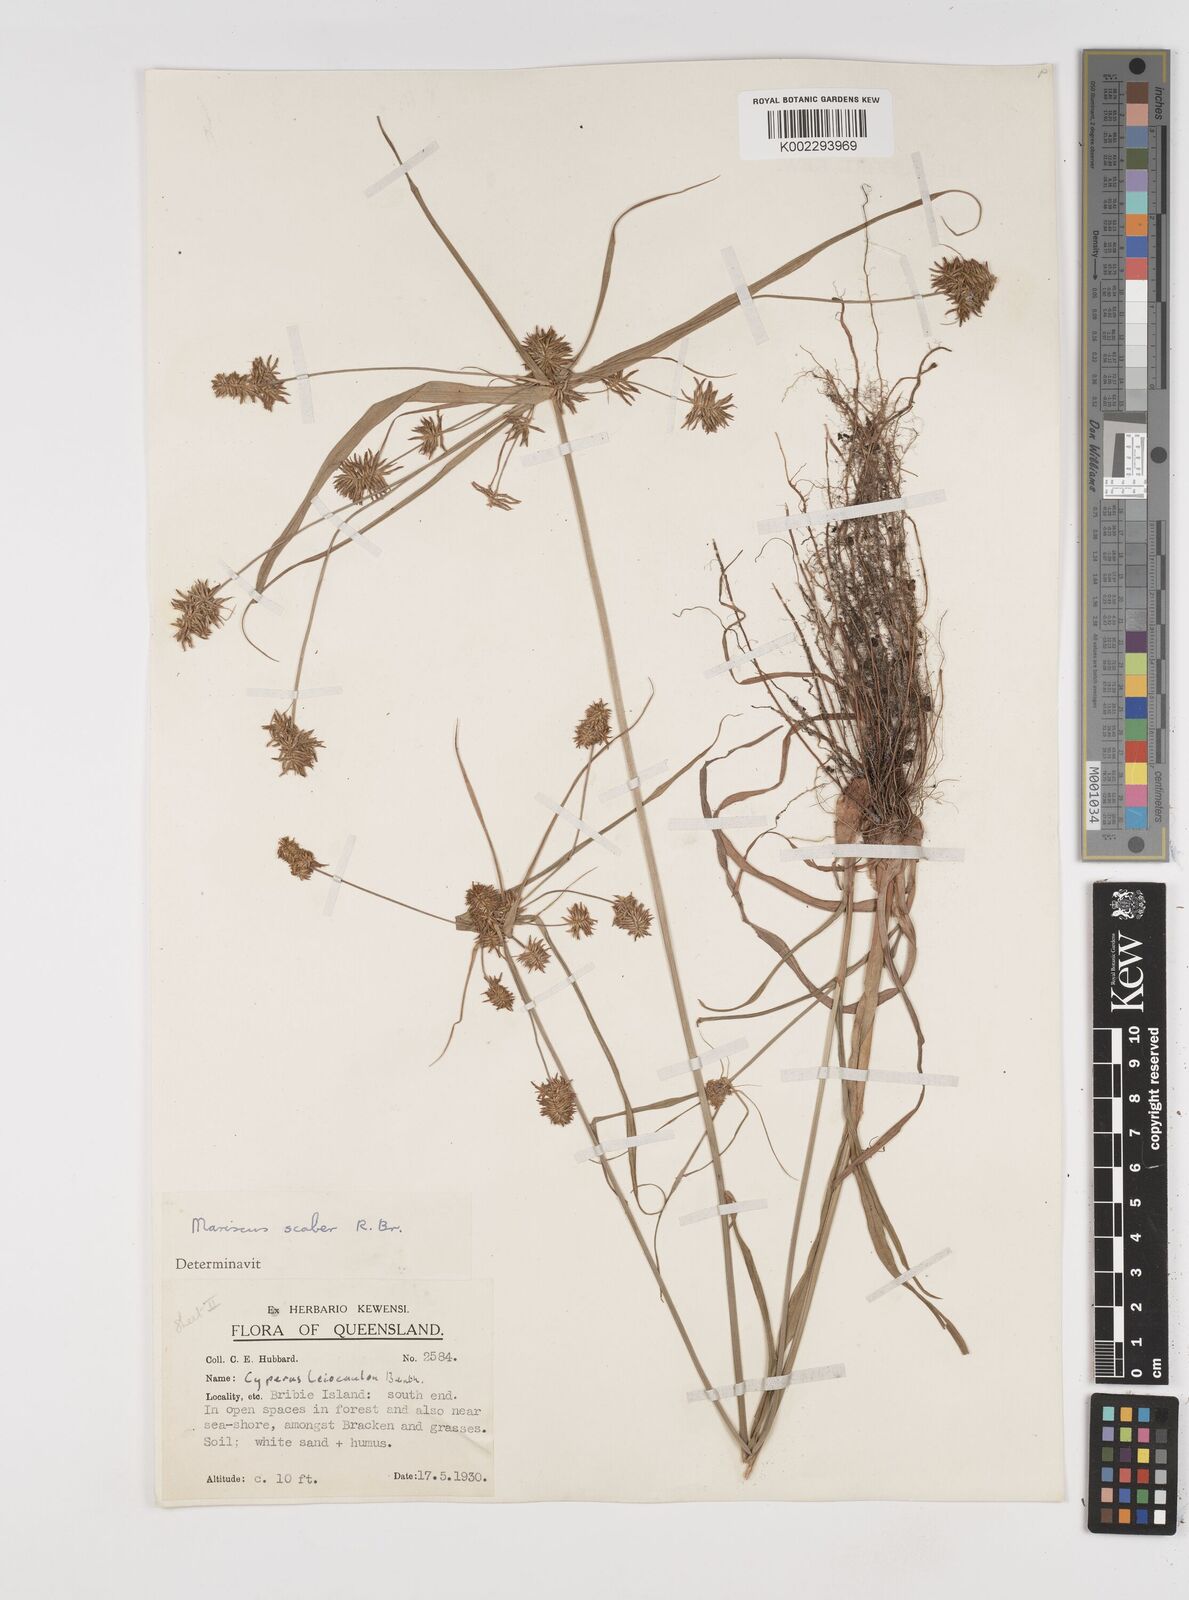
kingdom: Plantae
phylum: Tracheophyta
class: Liliopsida
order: Poales
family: Cyperaceae
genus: Cyperus
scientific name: Cyperus scaber
